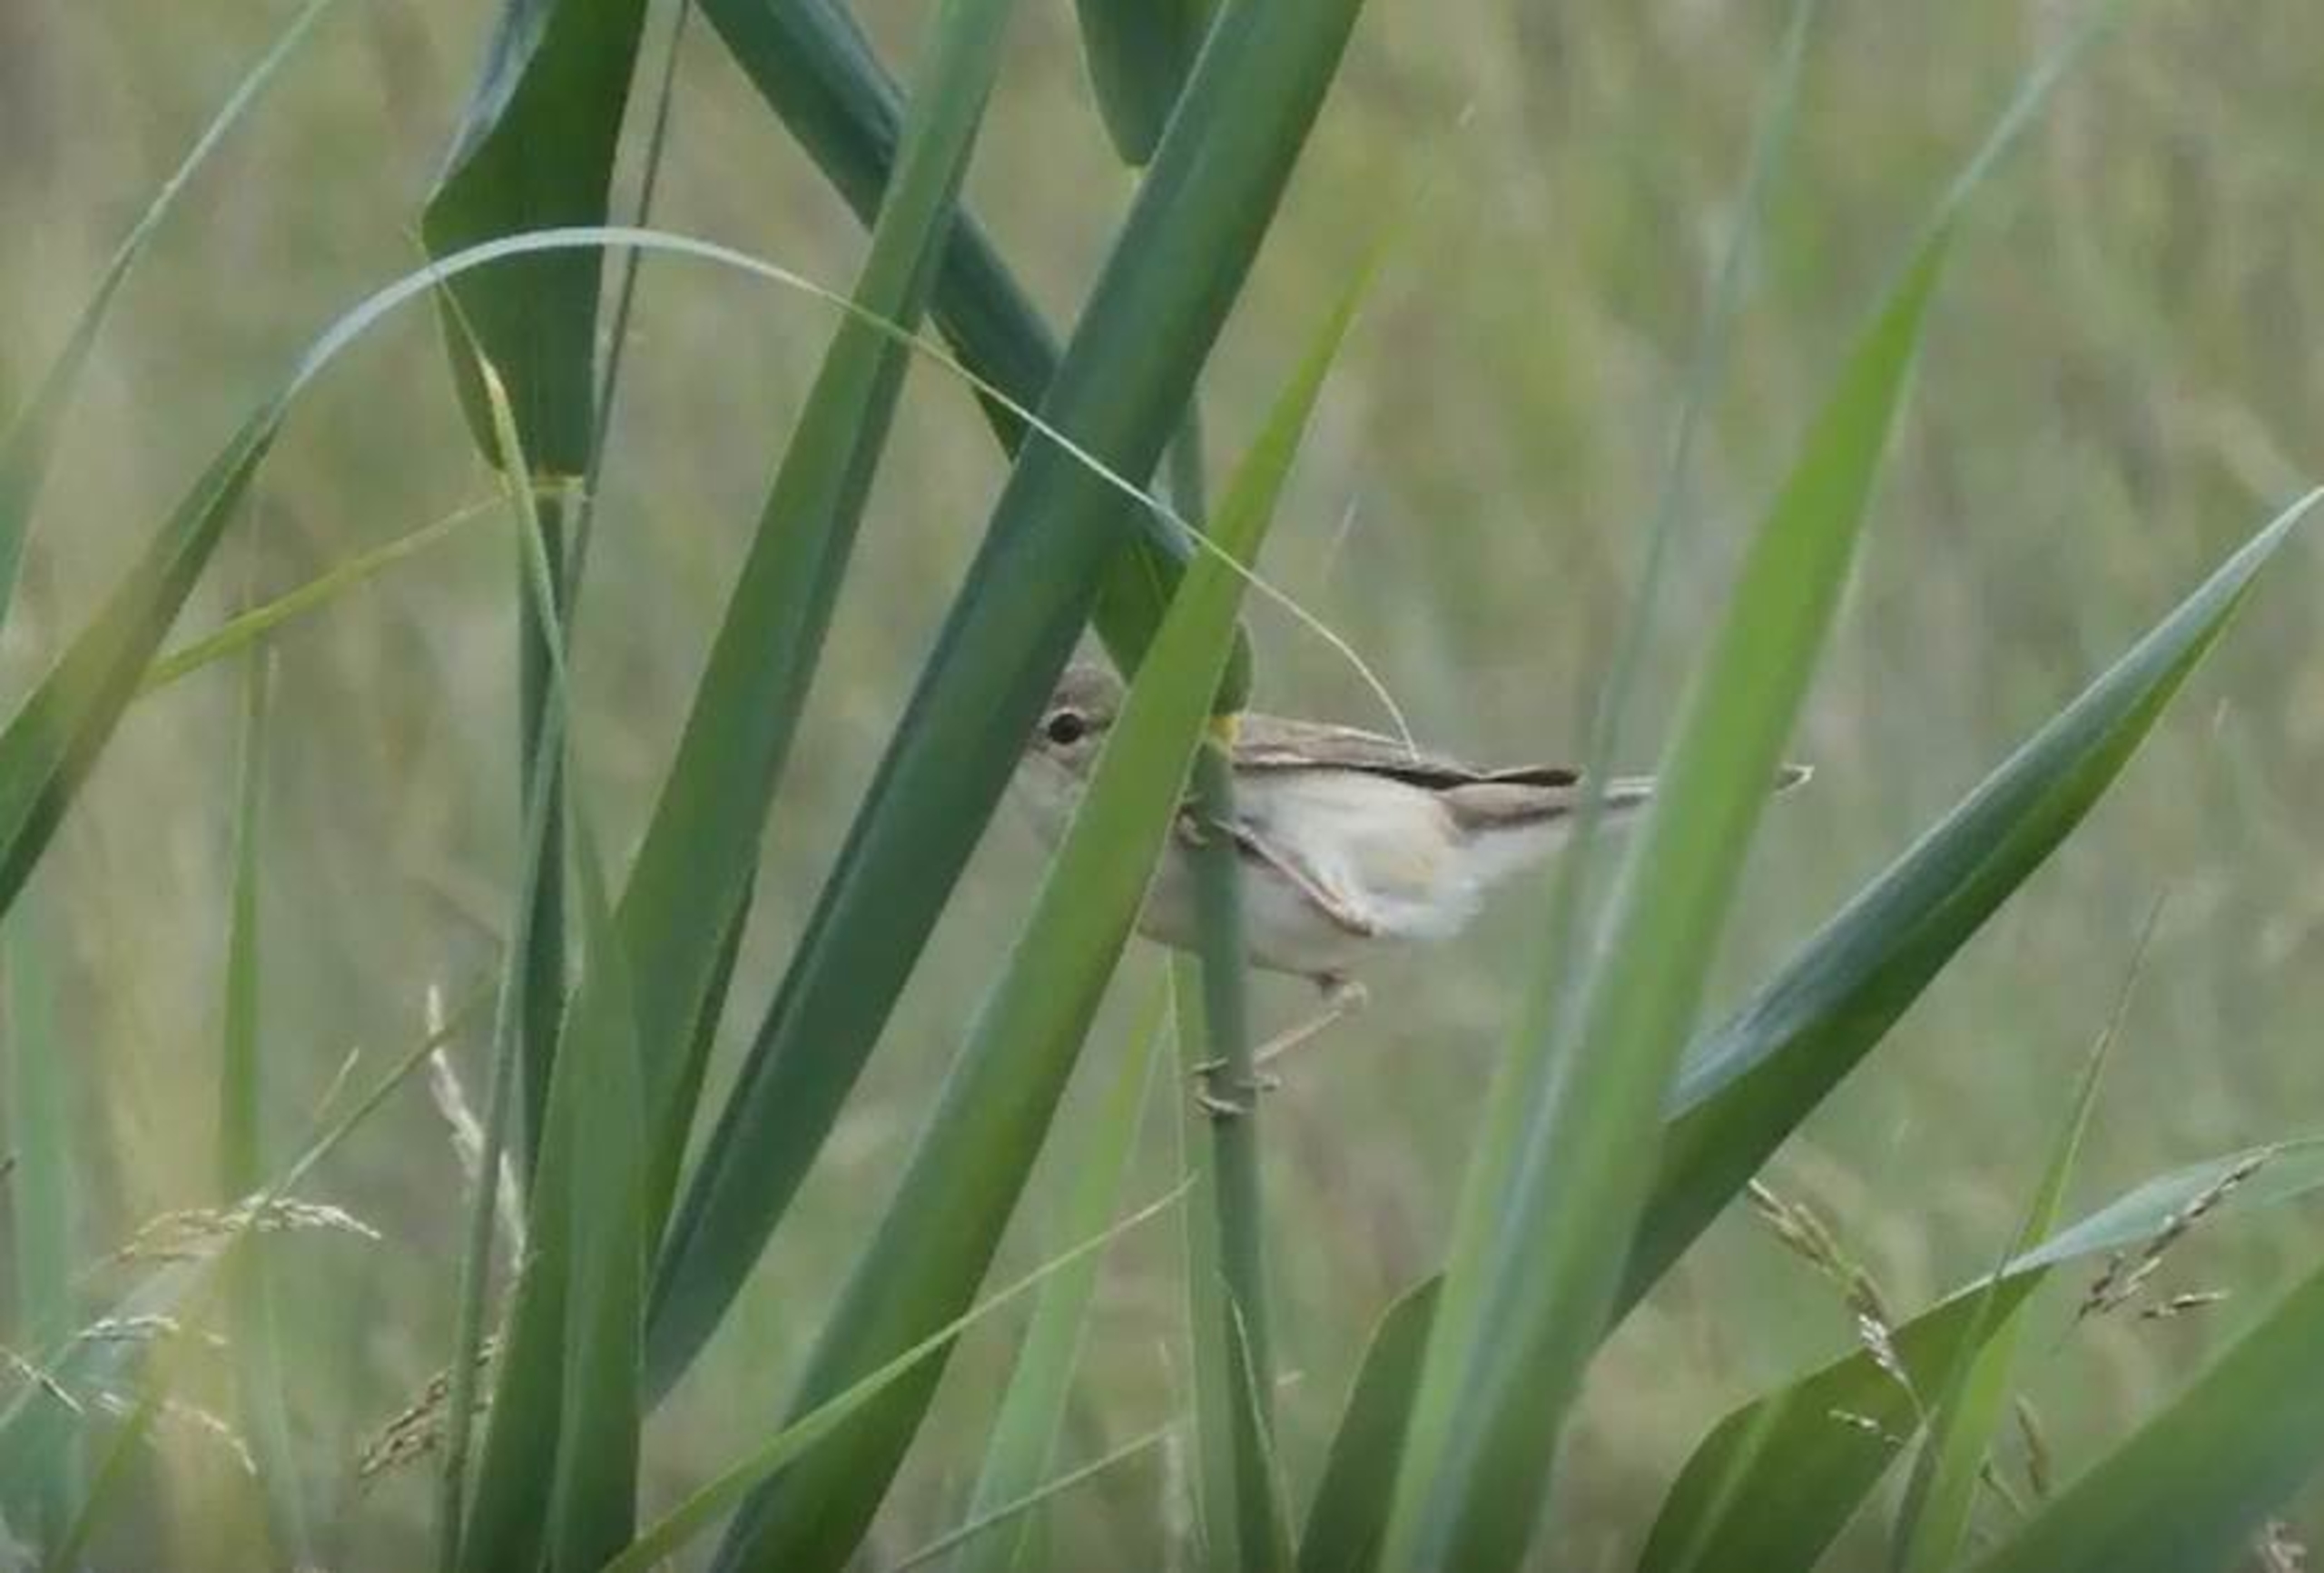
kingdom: Animalia
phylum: Chordata
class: Aves
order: Passeriformes
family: Acrocephalidae
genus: Acrocephalus
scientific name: Acrocephalus palustris
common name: Kærsanger
